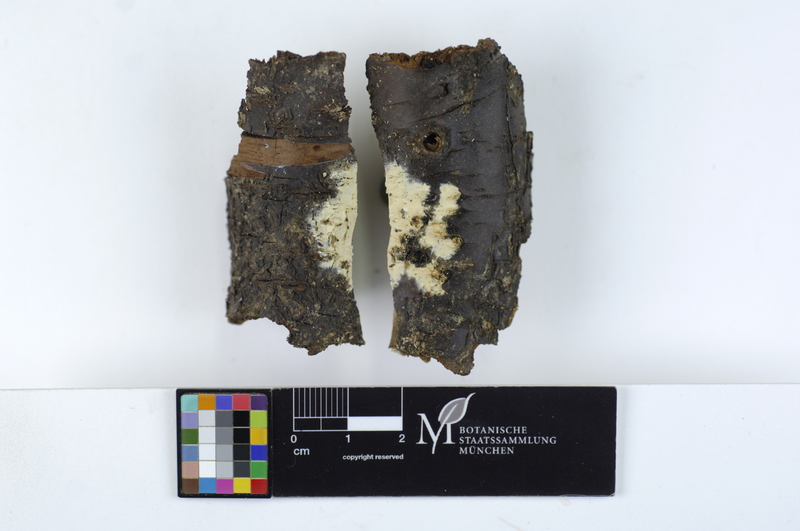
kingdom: Plantae
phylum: Tracheophyta
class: Magnoliopsida
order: Rosales
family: Rosaceae
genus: Prunus
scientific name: Prunus spinosa
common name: Blackthorn
